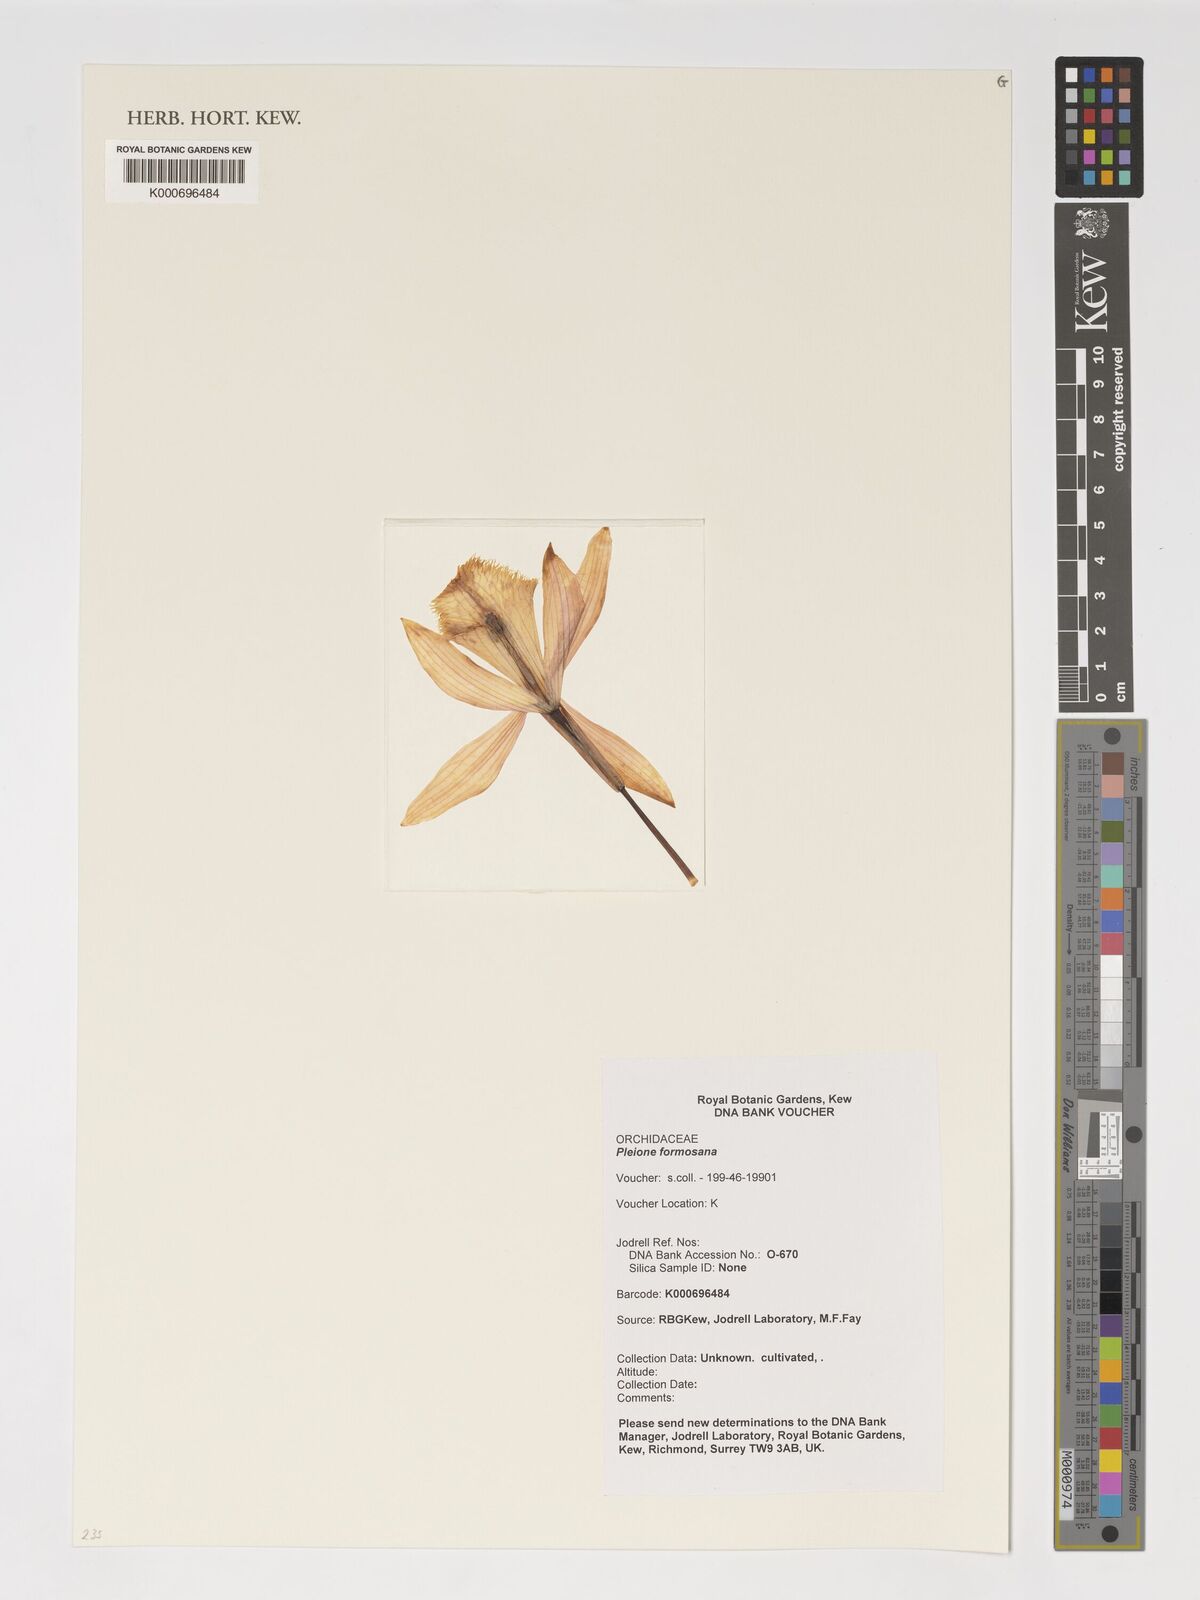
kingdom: Plantae
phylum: Tracheophyta
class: Liliopsida
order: Asparagales
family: Orchidaceae
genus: Pleione
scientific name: Pleione formosana
